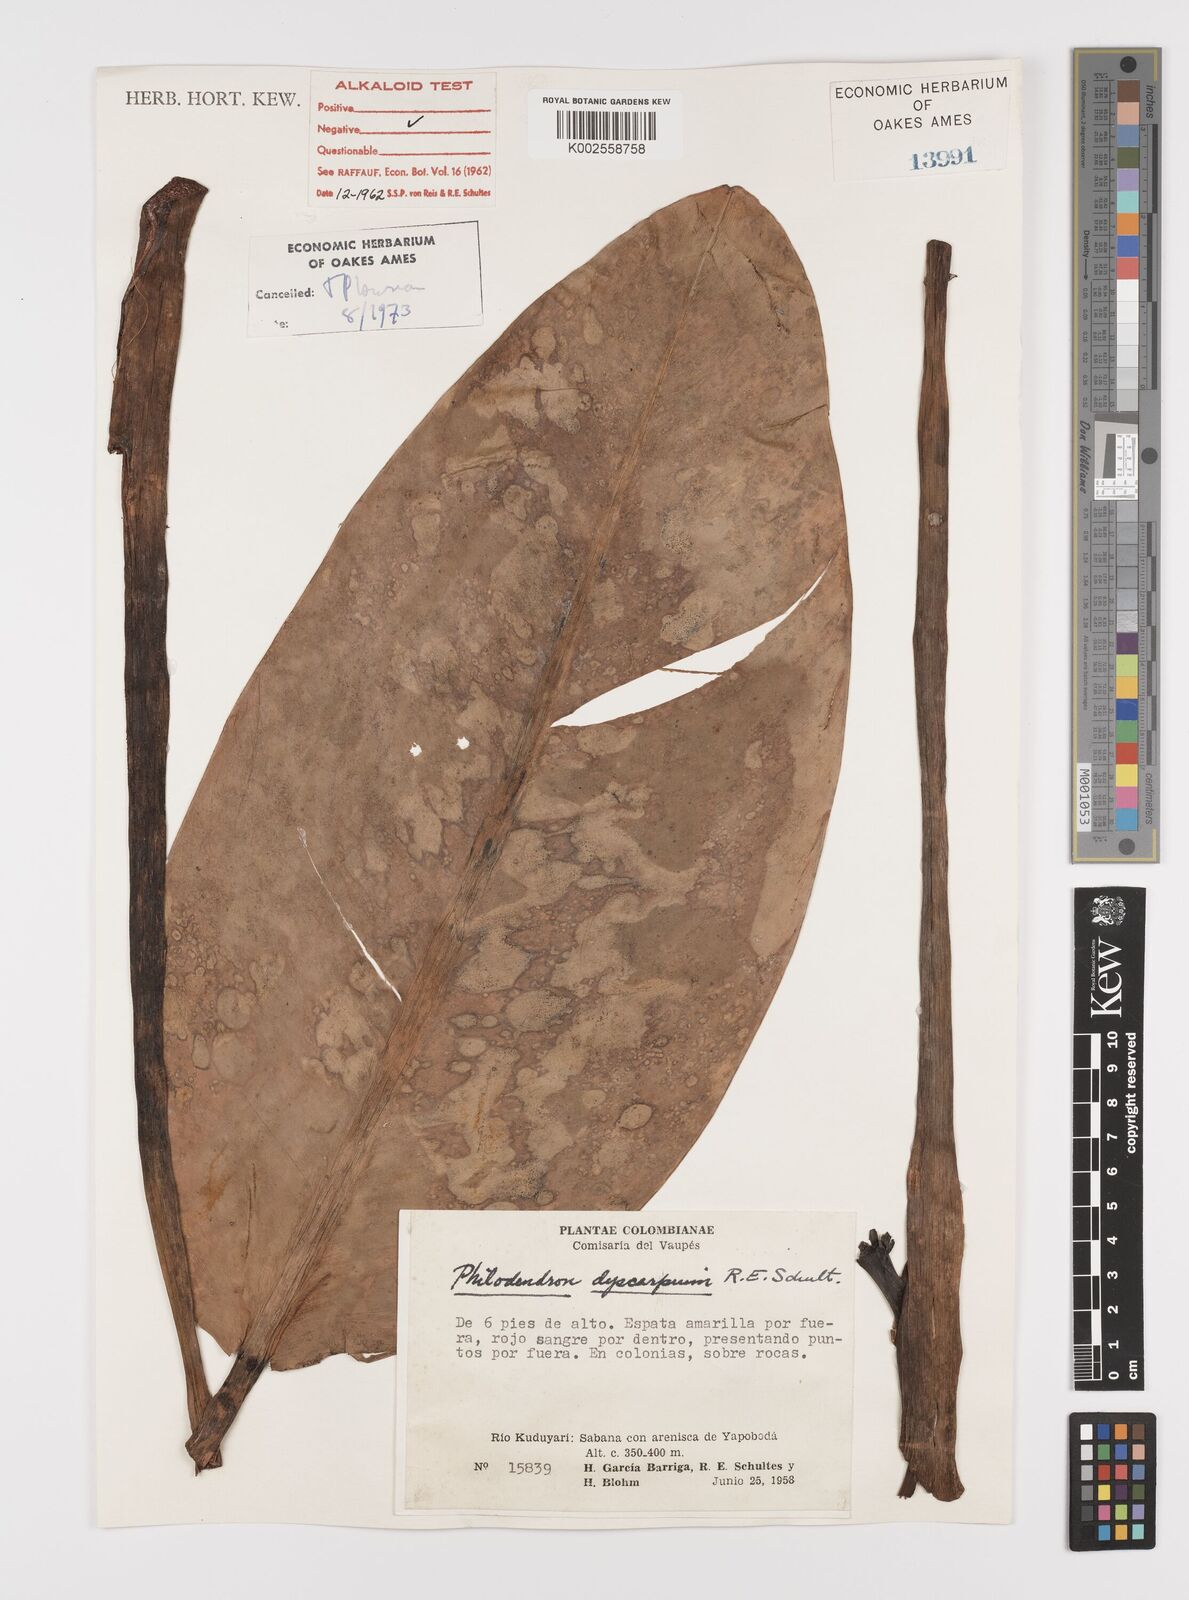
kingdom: Plantae
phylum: Tracheophyta
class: Liliopsida
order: Alismatales
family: Araceae
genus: Philodendron
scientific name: Philodendron dyscarpium
